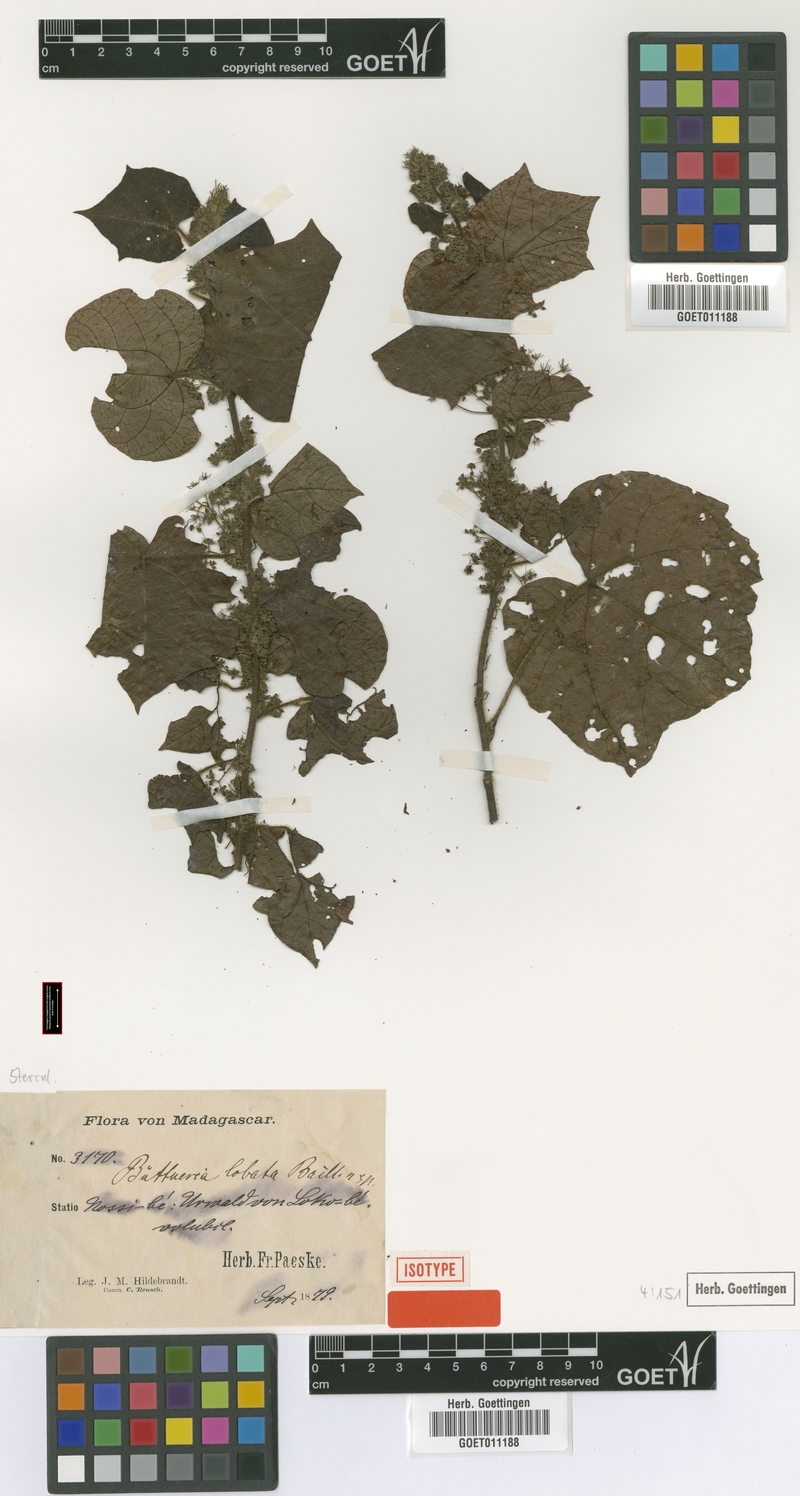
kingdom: Plantae
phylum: Tracheophyta
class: Magnoliopsida
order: Malvales
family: Malvaceae
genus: Byttneria
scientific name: Byttneria lobata
